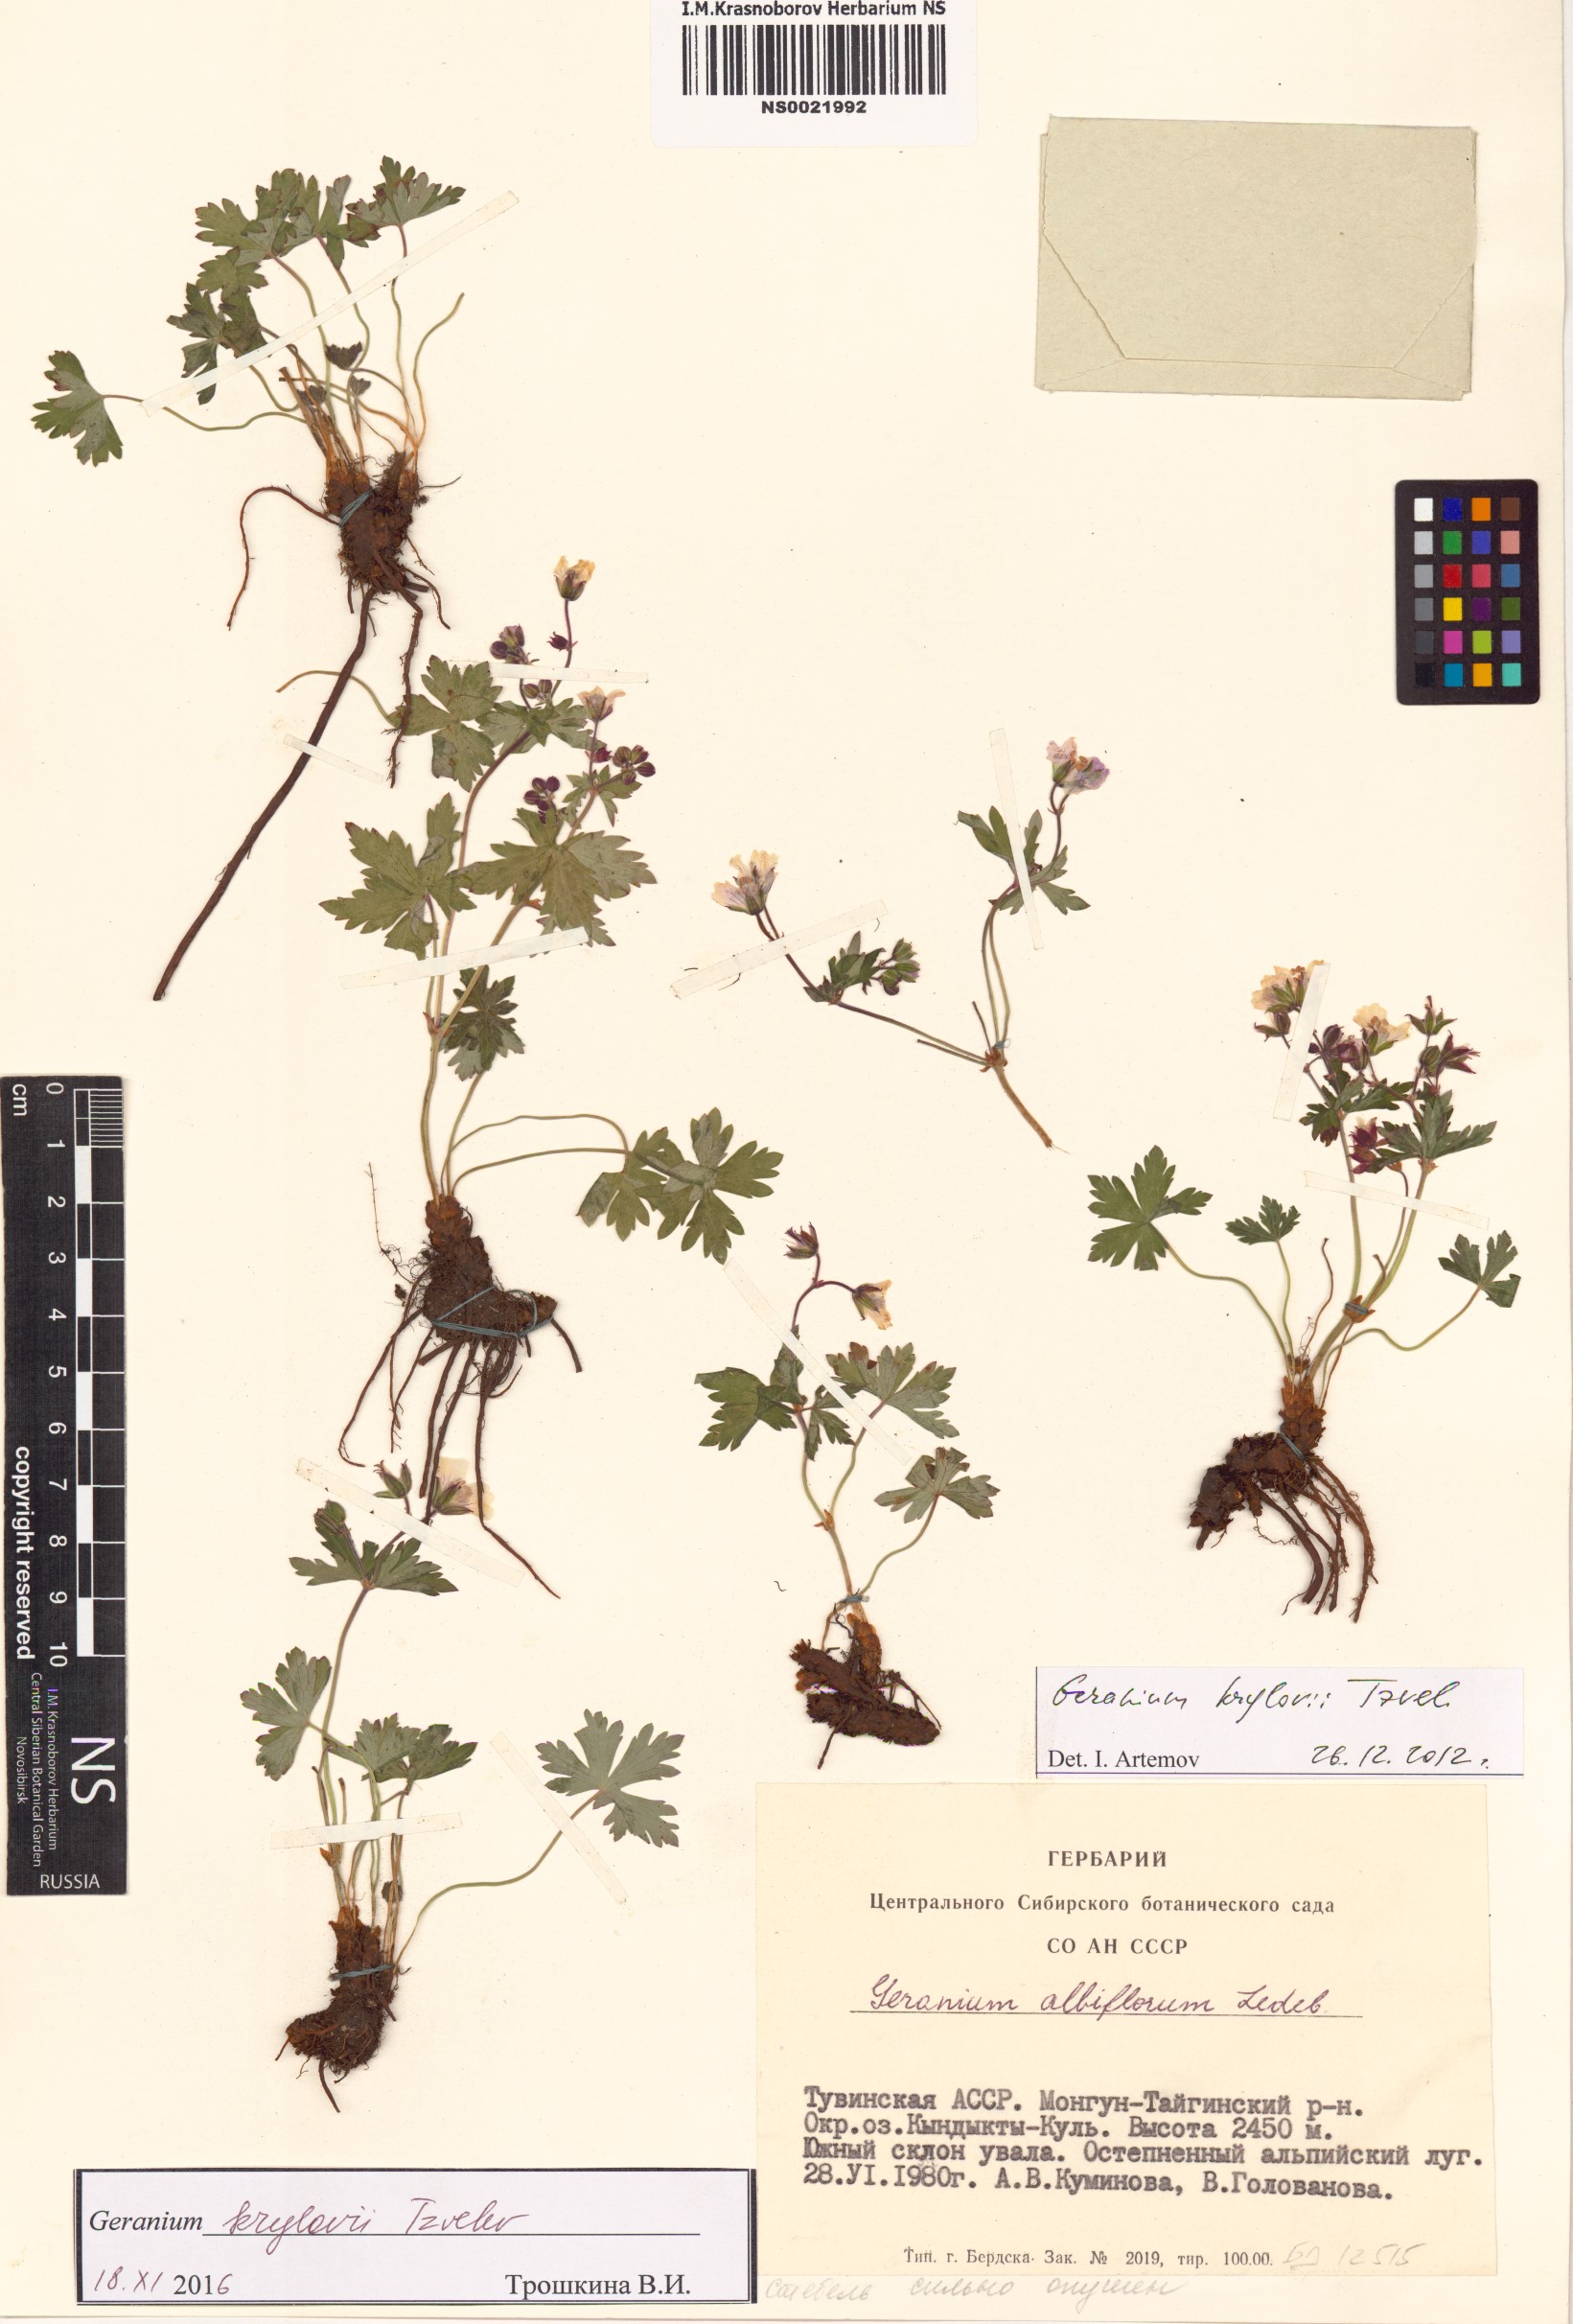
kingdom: Plantae
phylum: Tracheophyta
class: Magnoliopsida
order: Geraniales
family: Geraniaceae
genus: Geranium
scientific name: Geranium sylvaticum
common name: Wood crane's-bill
